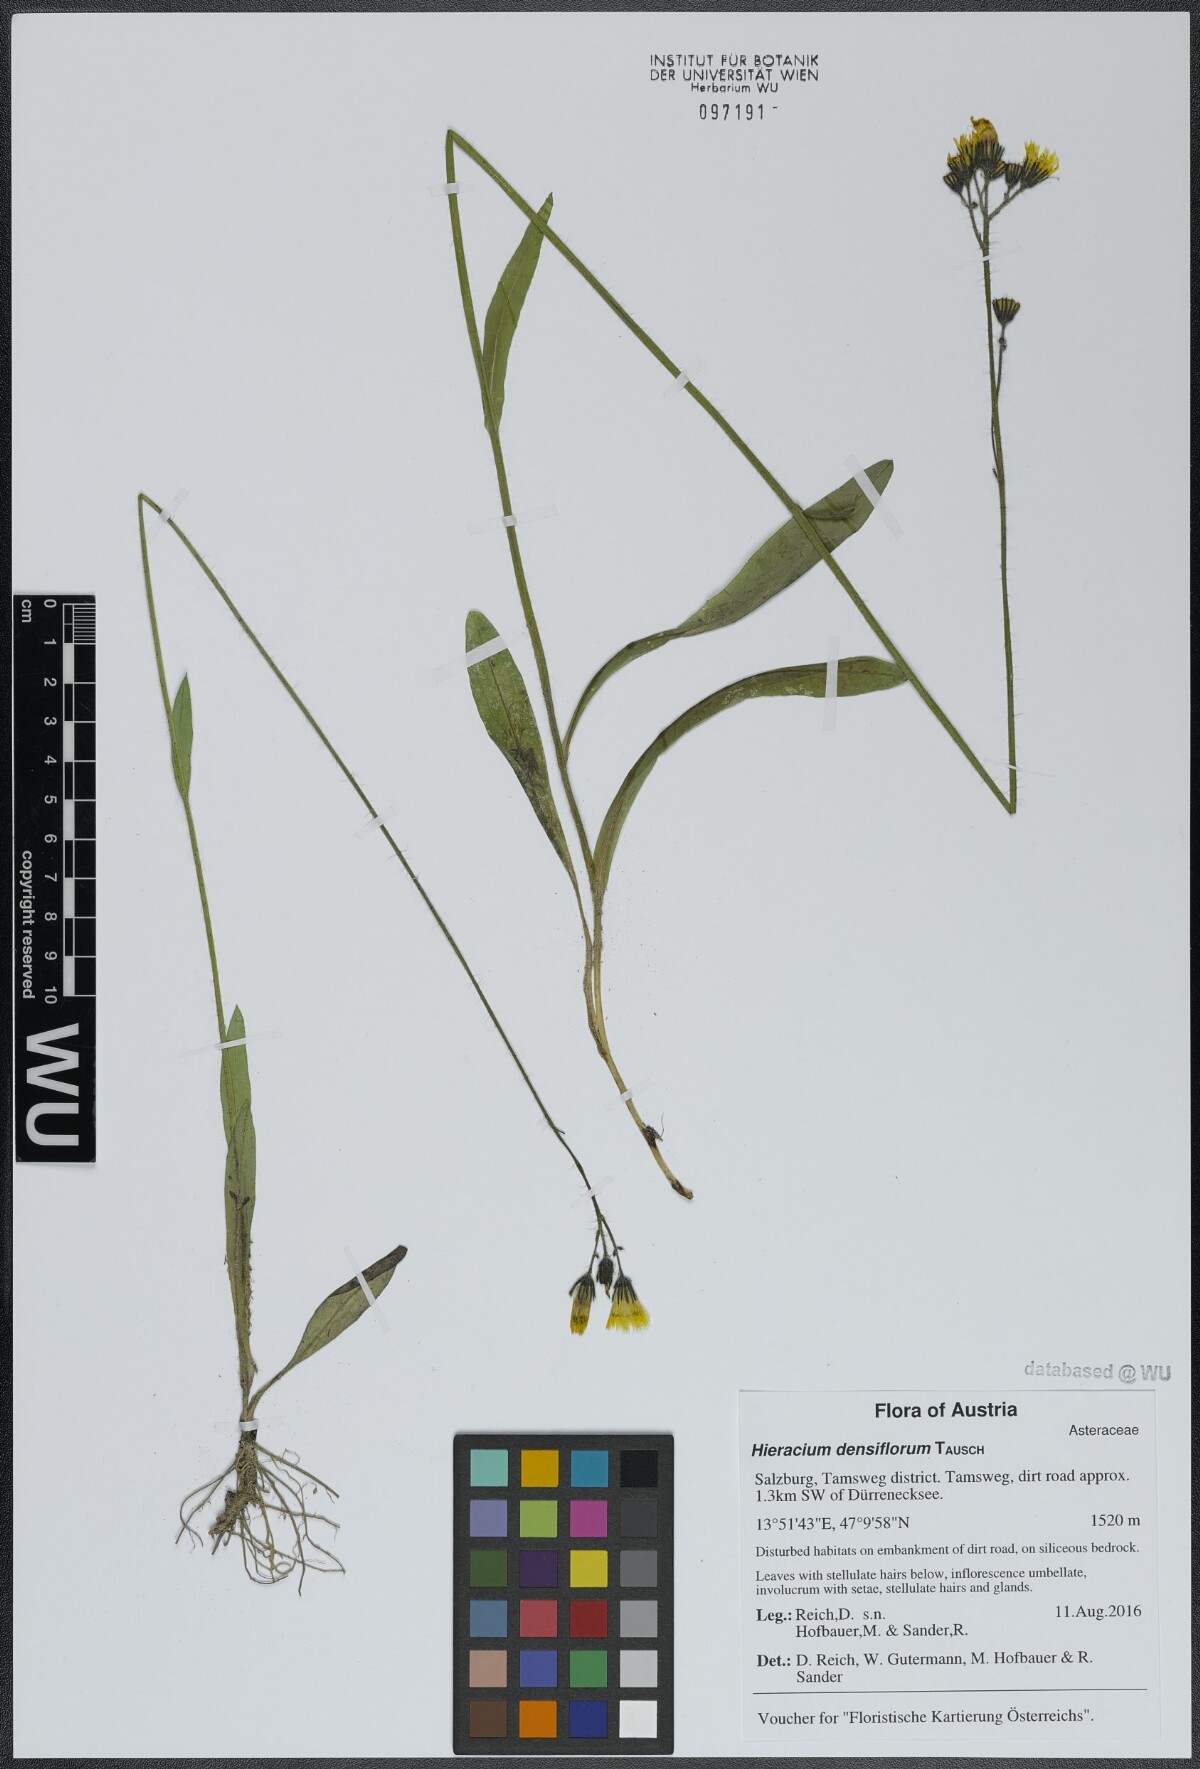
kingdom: Plantae
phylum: Tracheophyta
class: Magnoliopsida
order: Asterales
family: Asteraceae
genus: Pilosella
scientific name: Pilosella densiflora
